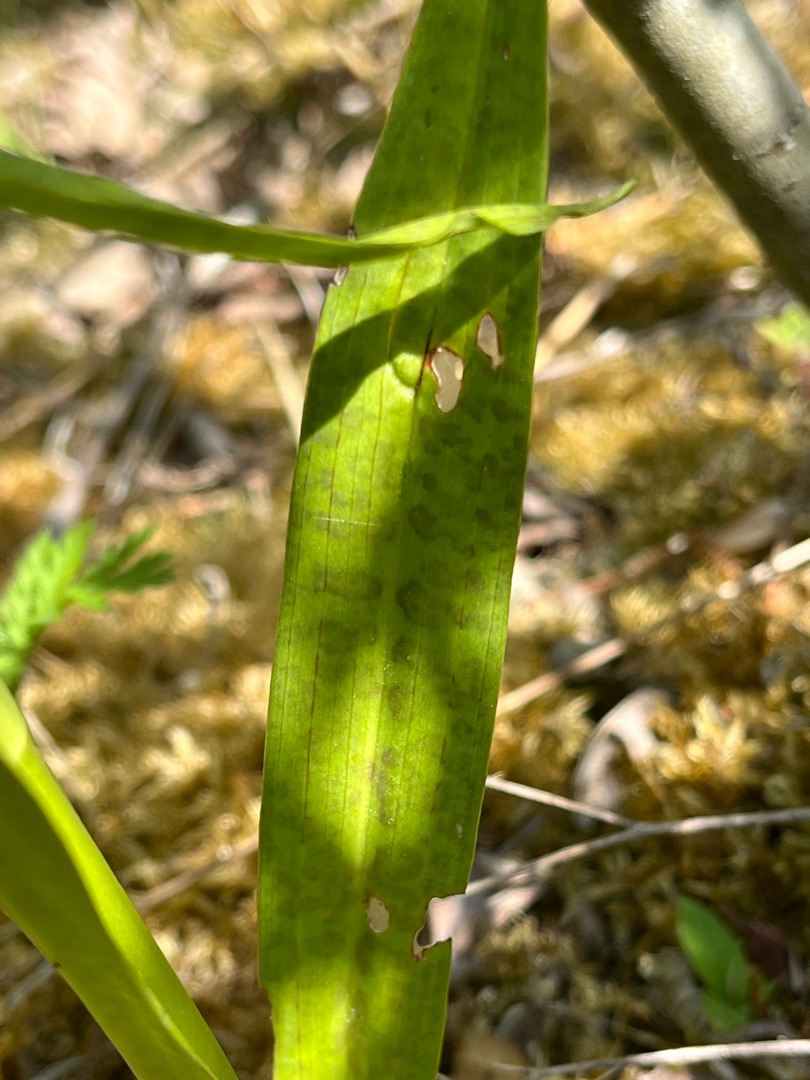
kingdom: Plantae
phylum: Tracheophyta
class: Liliopsida
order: Asparagales
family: Orchidaceae
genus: Dactylorhiza
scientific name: Dactylorhiza majalis
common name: Ringplettet gøgeurt
